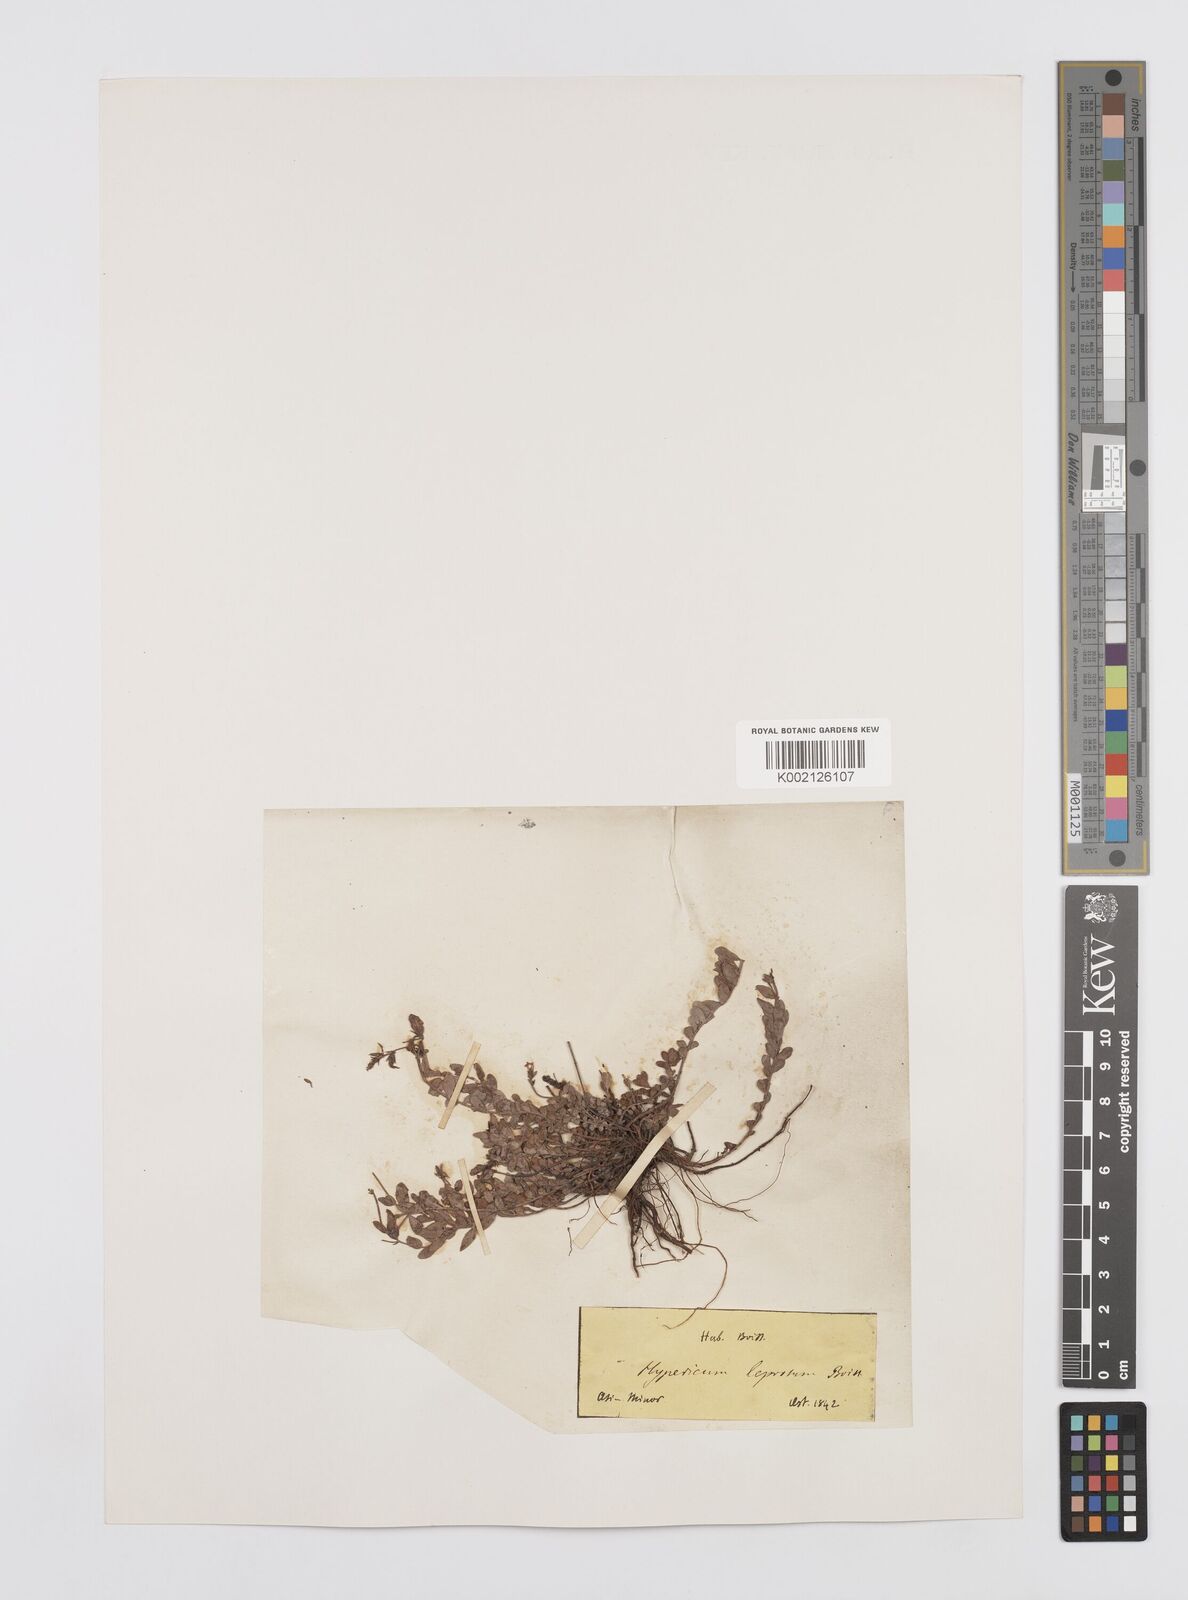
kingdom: Plantae
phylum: Tracheophyta
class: Magnoliopsida
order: Malpighiales
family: Hypericaceae
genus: Hypericum
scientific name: Hypericum aviculariifolium
